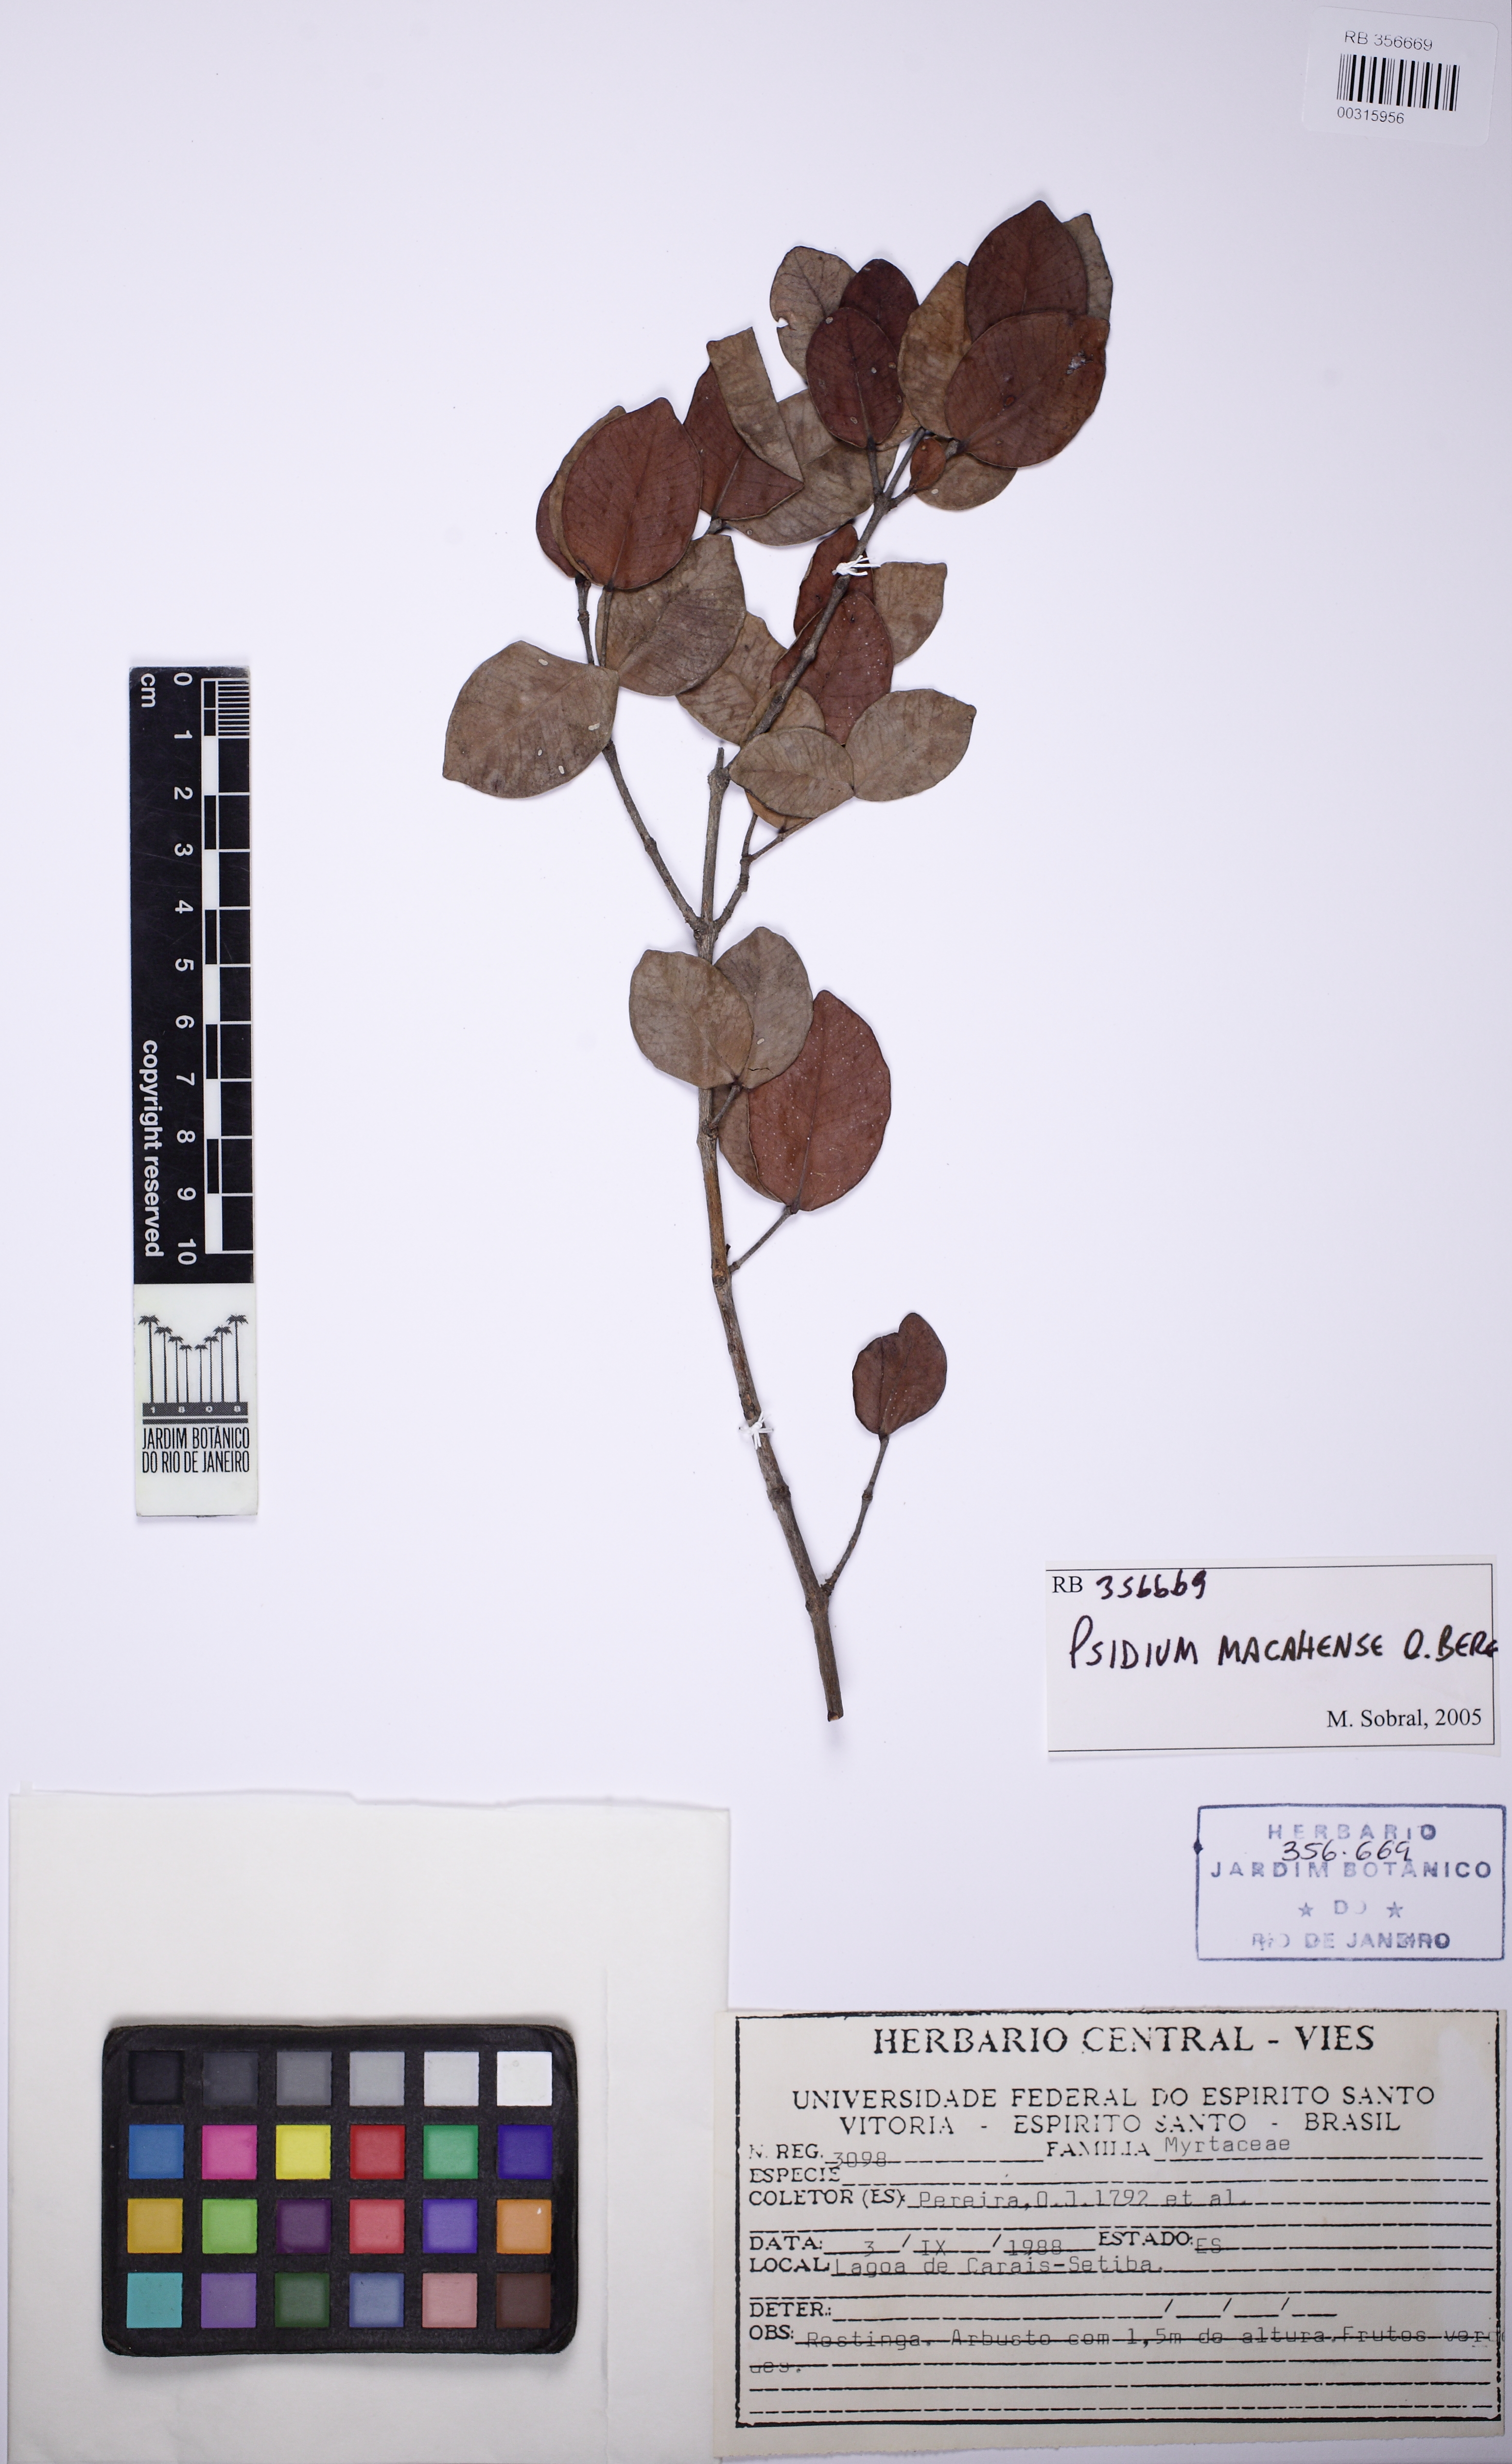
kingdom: Plantae
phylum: Tracheophyta
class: Magnoliopsida
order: Myrtales
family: Myrtaceae
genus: Psidium
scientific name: Psidium brownianum
